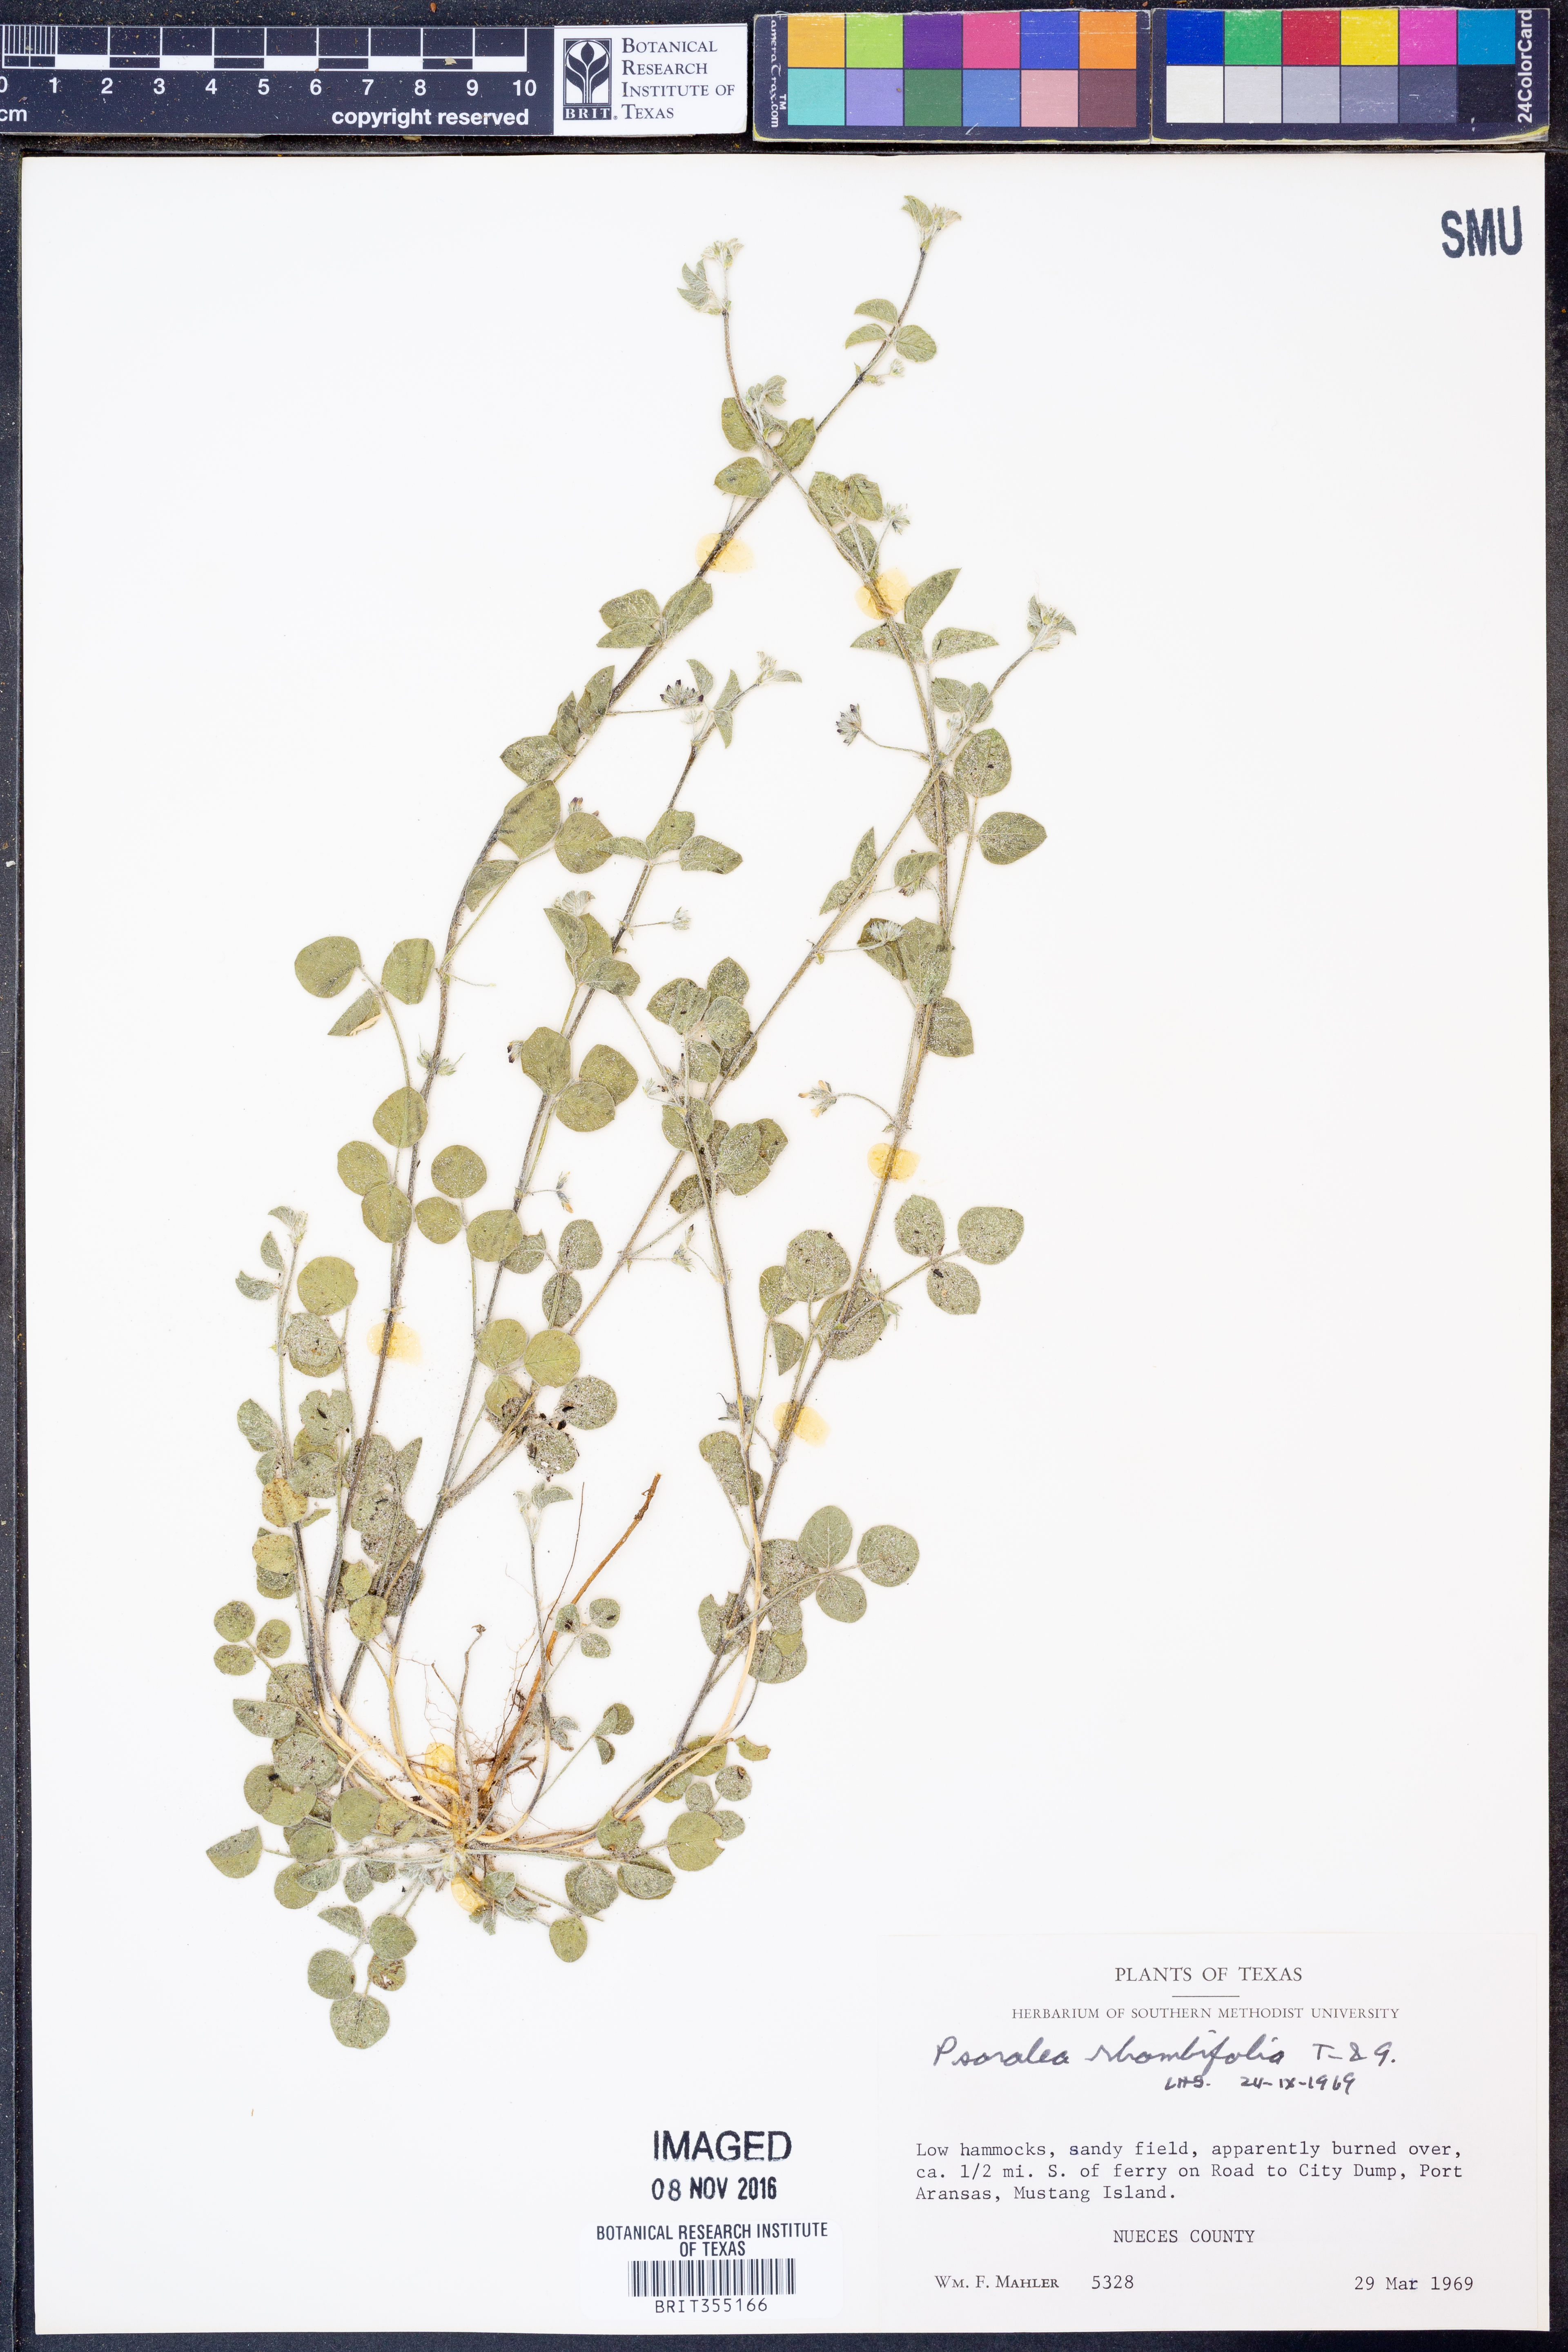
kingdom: Plantae
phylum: Tracheophyta
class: Magnoliopsida
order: Fabales
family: Fabaceae
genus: Pediomelum
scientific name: Pediomelum rhombifolium
